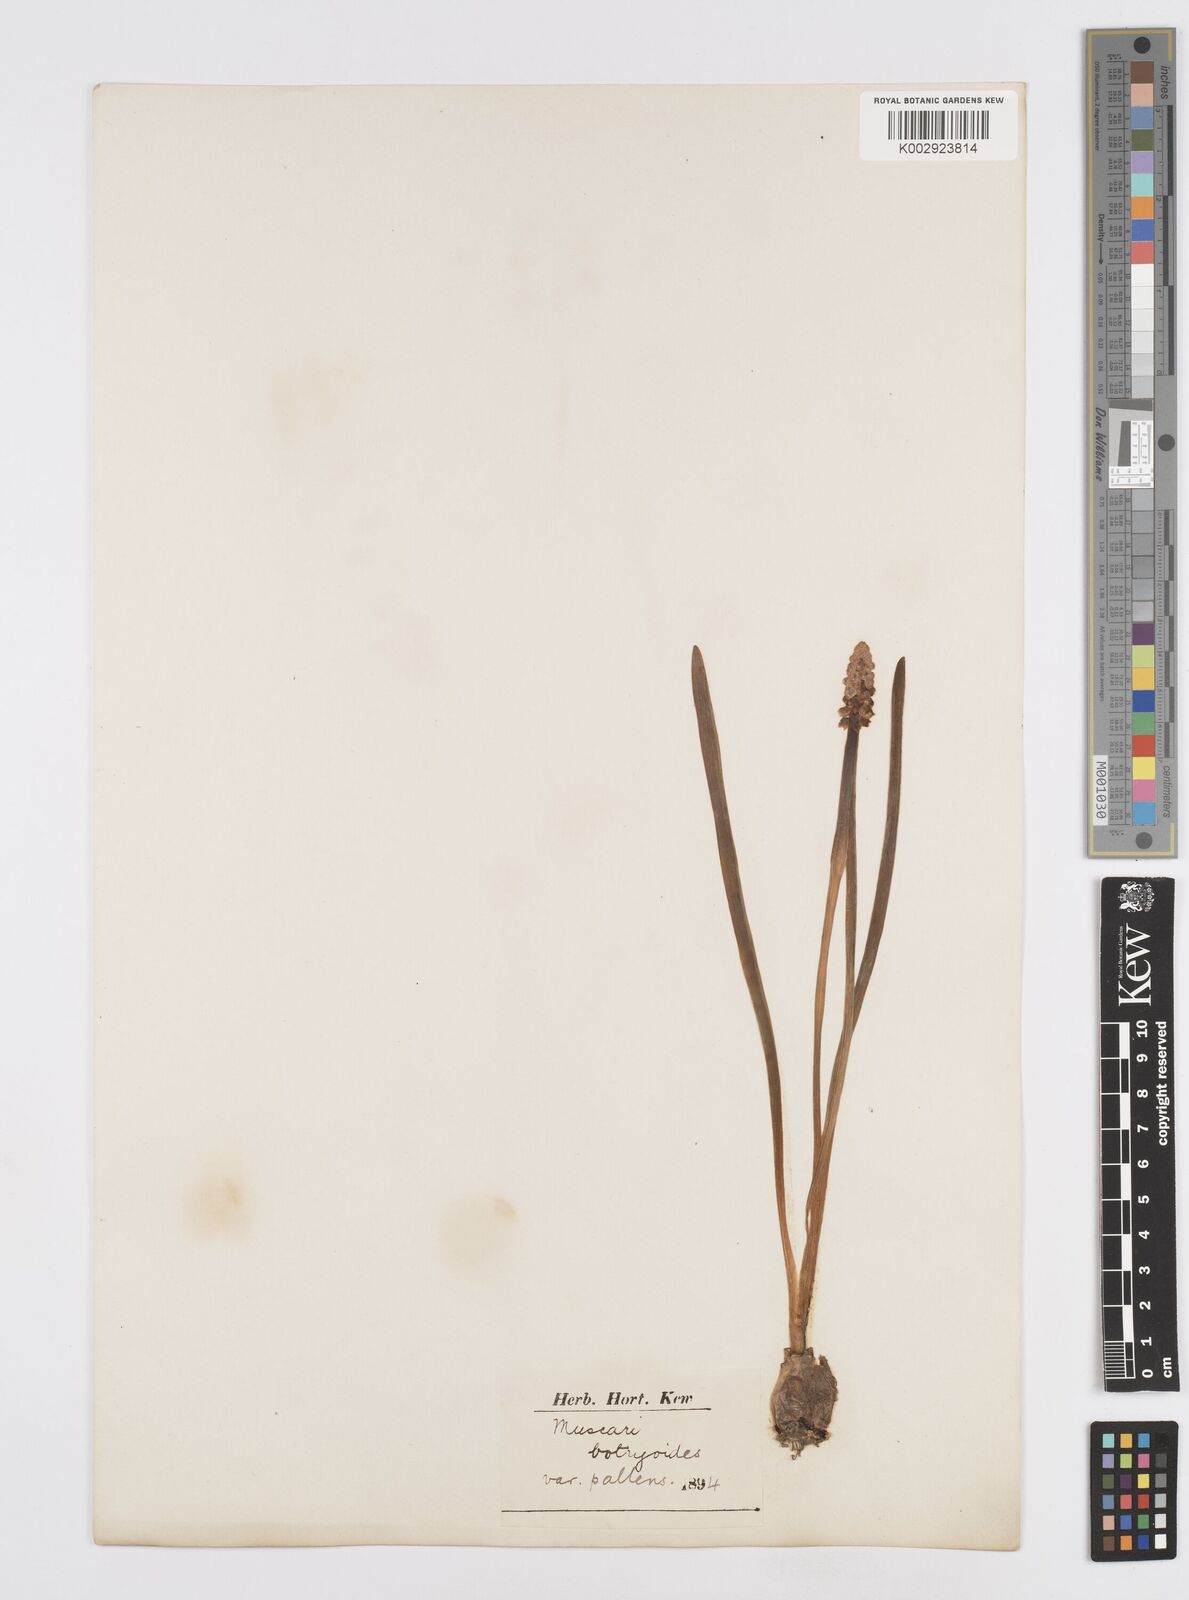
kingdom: Plantae
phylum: Tracheophyta
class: Liliopsida
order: Asparagales
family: Asparagaceae
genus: Muscari
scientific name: Muscari botryoides
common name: Compact grape-hyacinth
